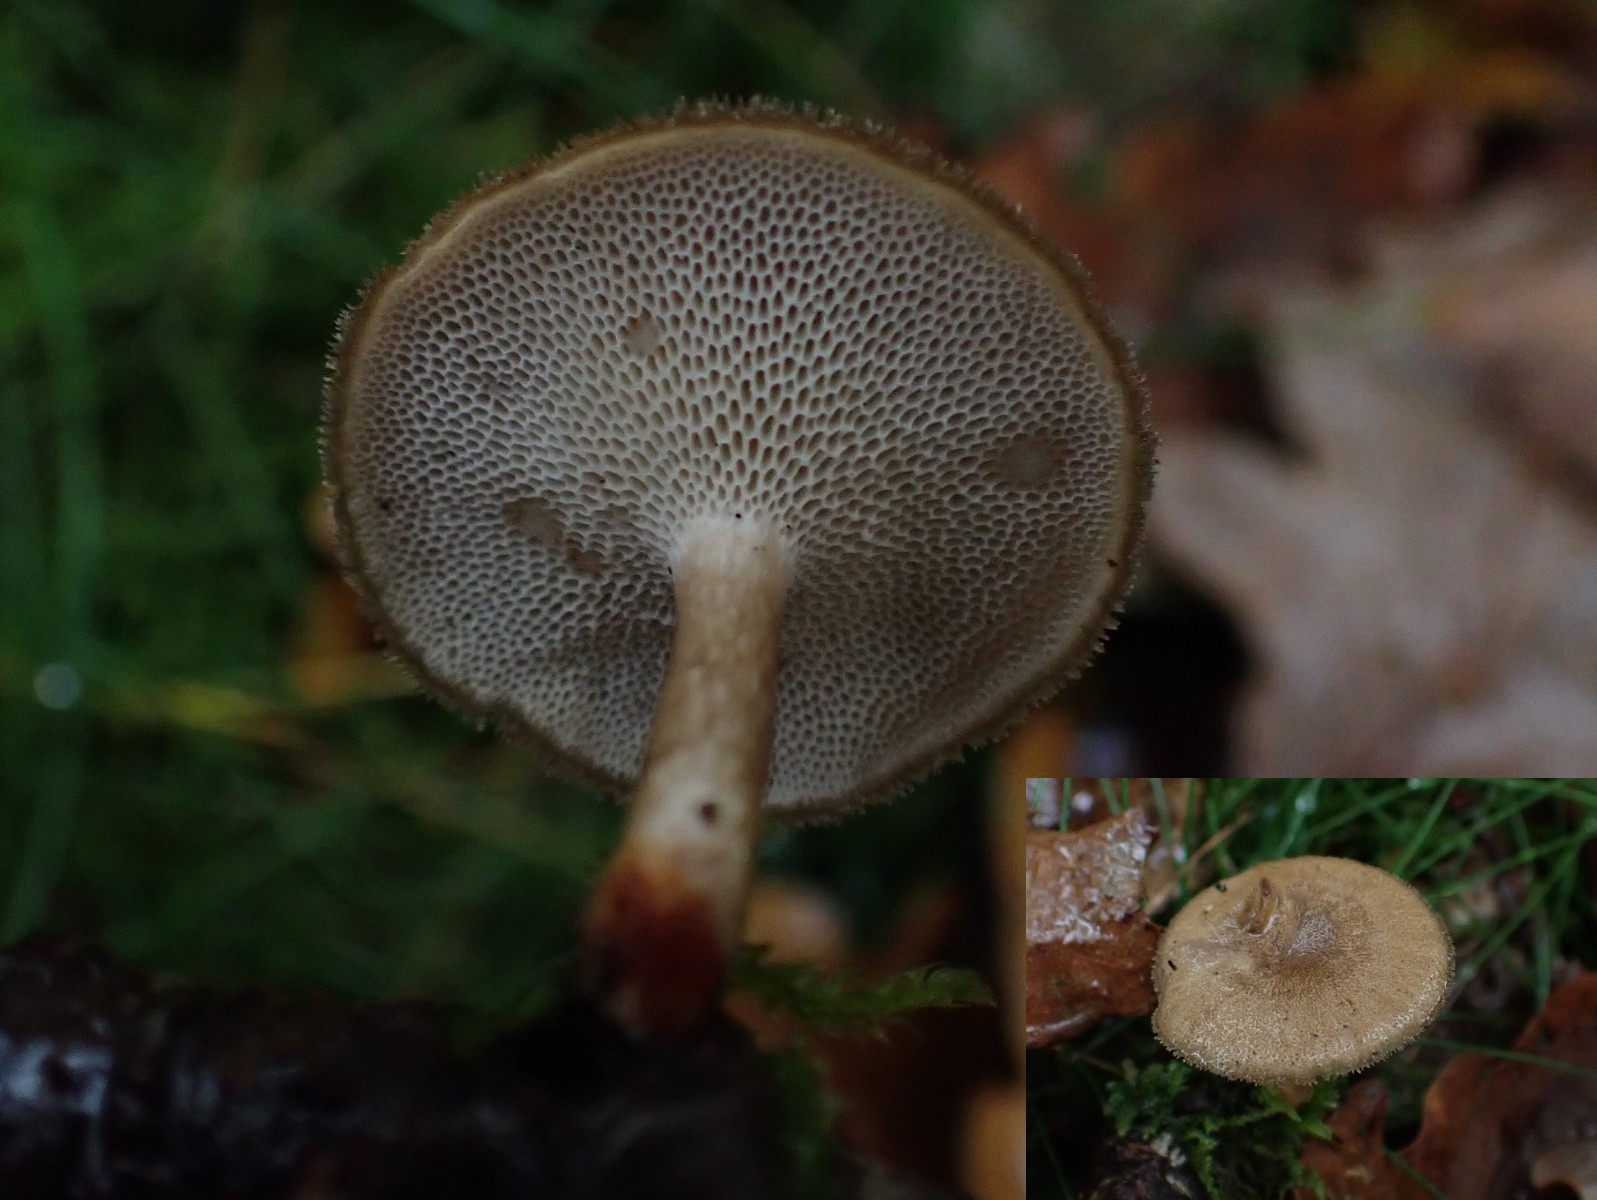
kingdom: Fungi
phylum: Basidiomycota
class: Agaricomycetes
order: Polyporales
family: Polyporaceae
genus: Lentinus
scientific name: Lentinus brumalis
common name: vinter-stilkporesvamp
